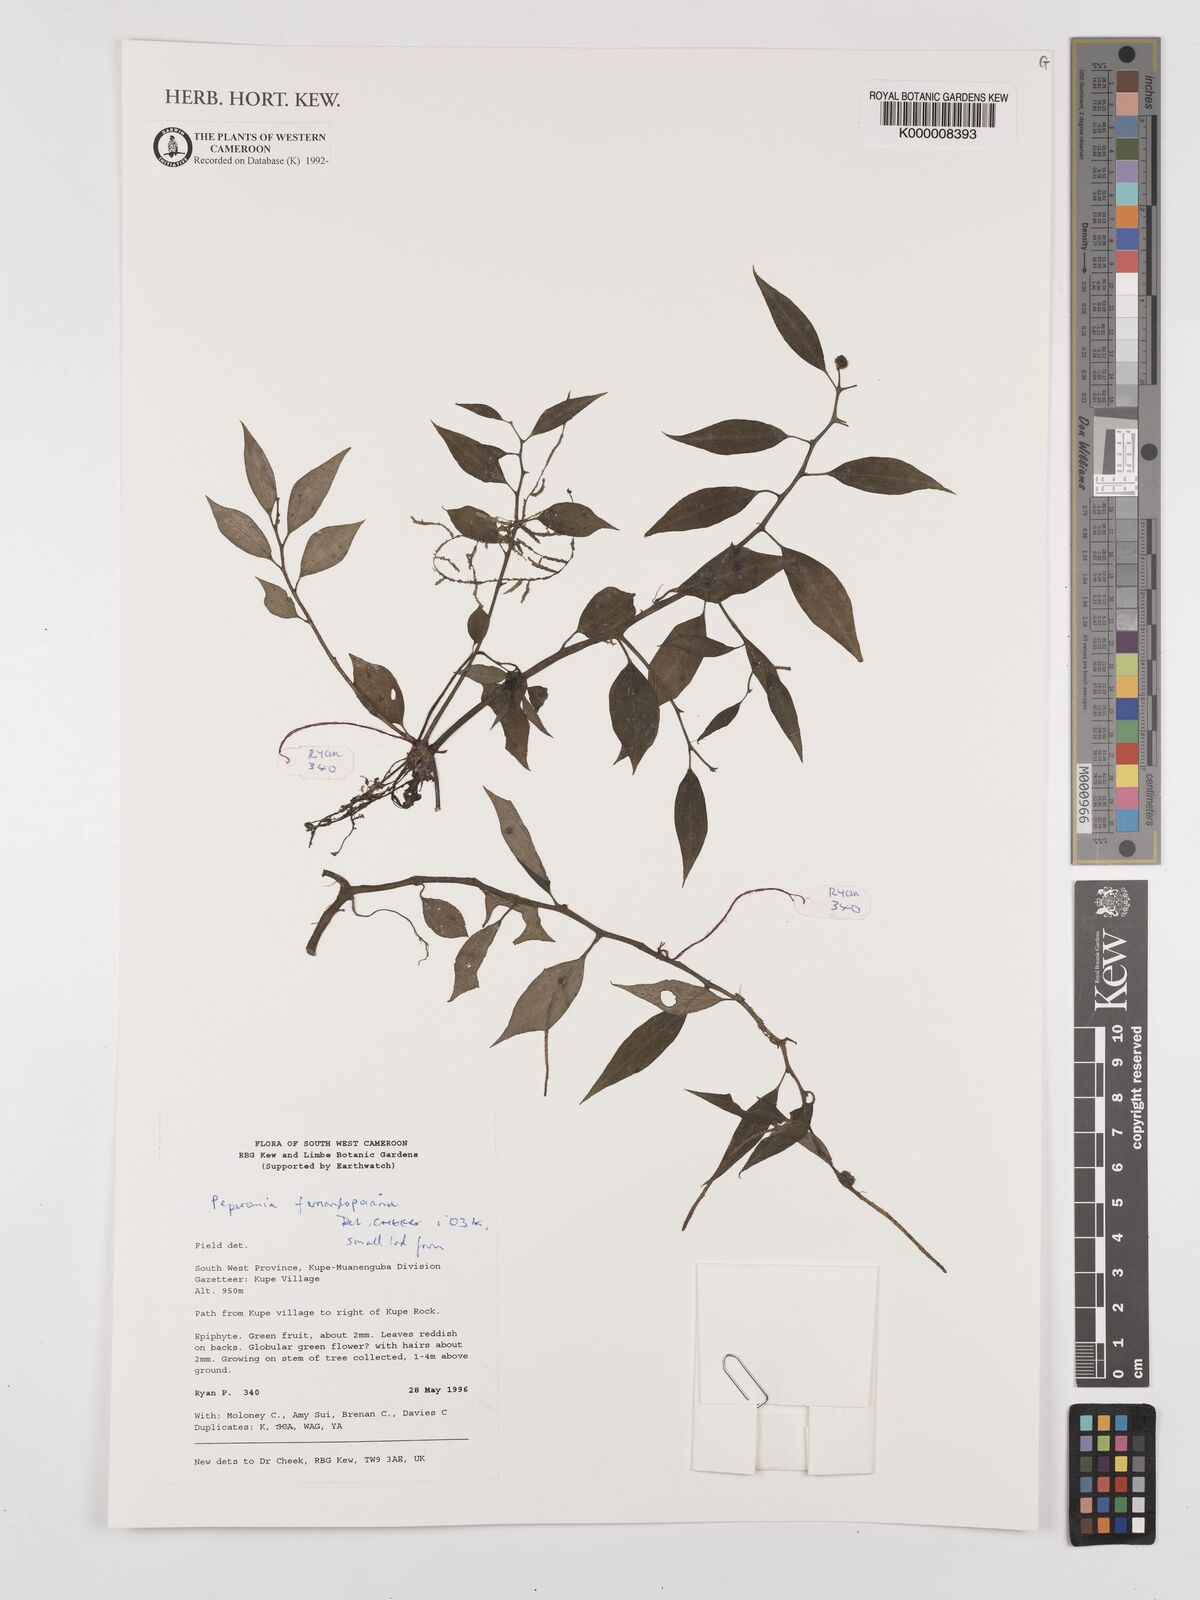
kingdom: Plantae
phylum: Tracheophyta
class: Magnoliopsida
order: Piperales
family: Piperaceae
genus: Peperomia
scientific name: Peperomia fernandopoiana
